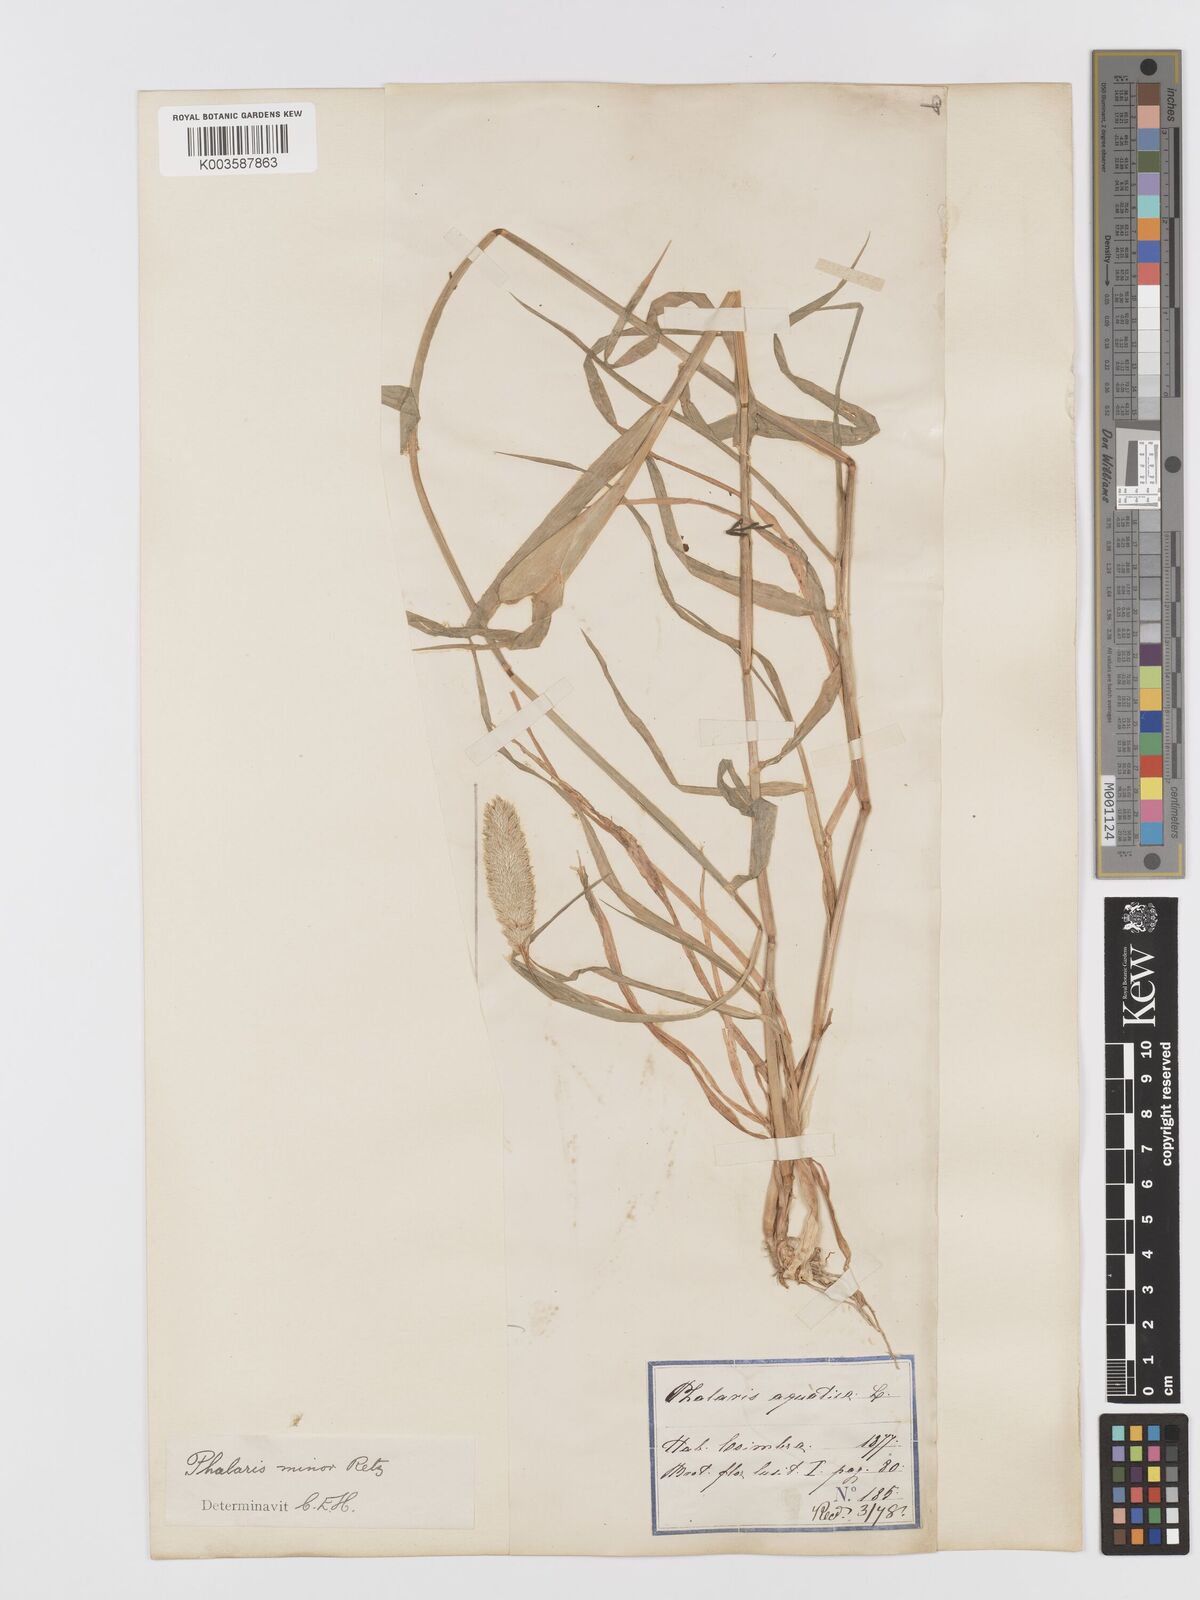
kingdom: Plantae
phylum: Tracheophyta
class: Liliopsida
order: Poales
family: Poaceae
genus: Phalaris
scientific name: Phalaris minor
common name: Littleseed canarygrass
